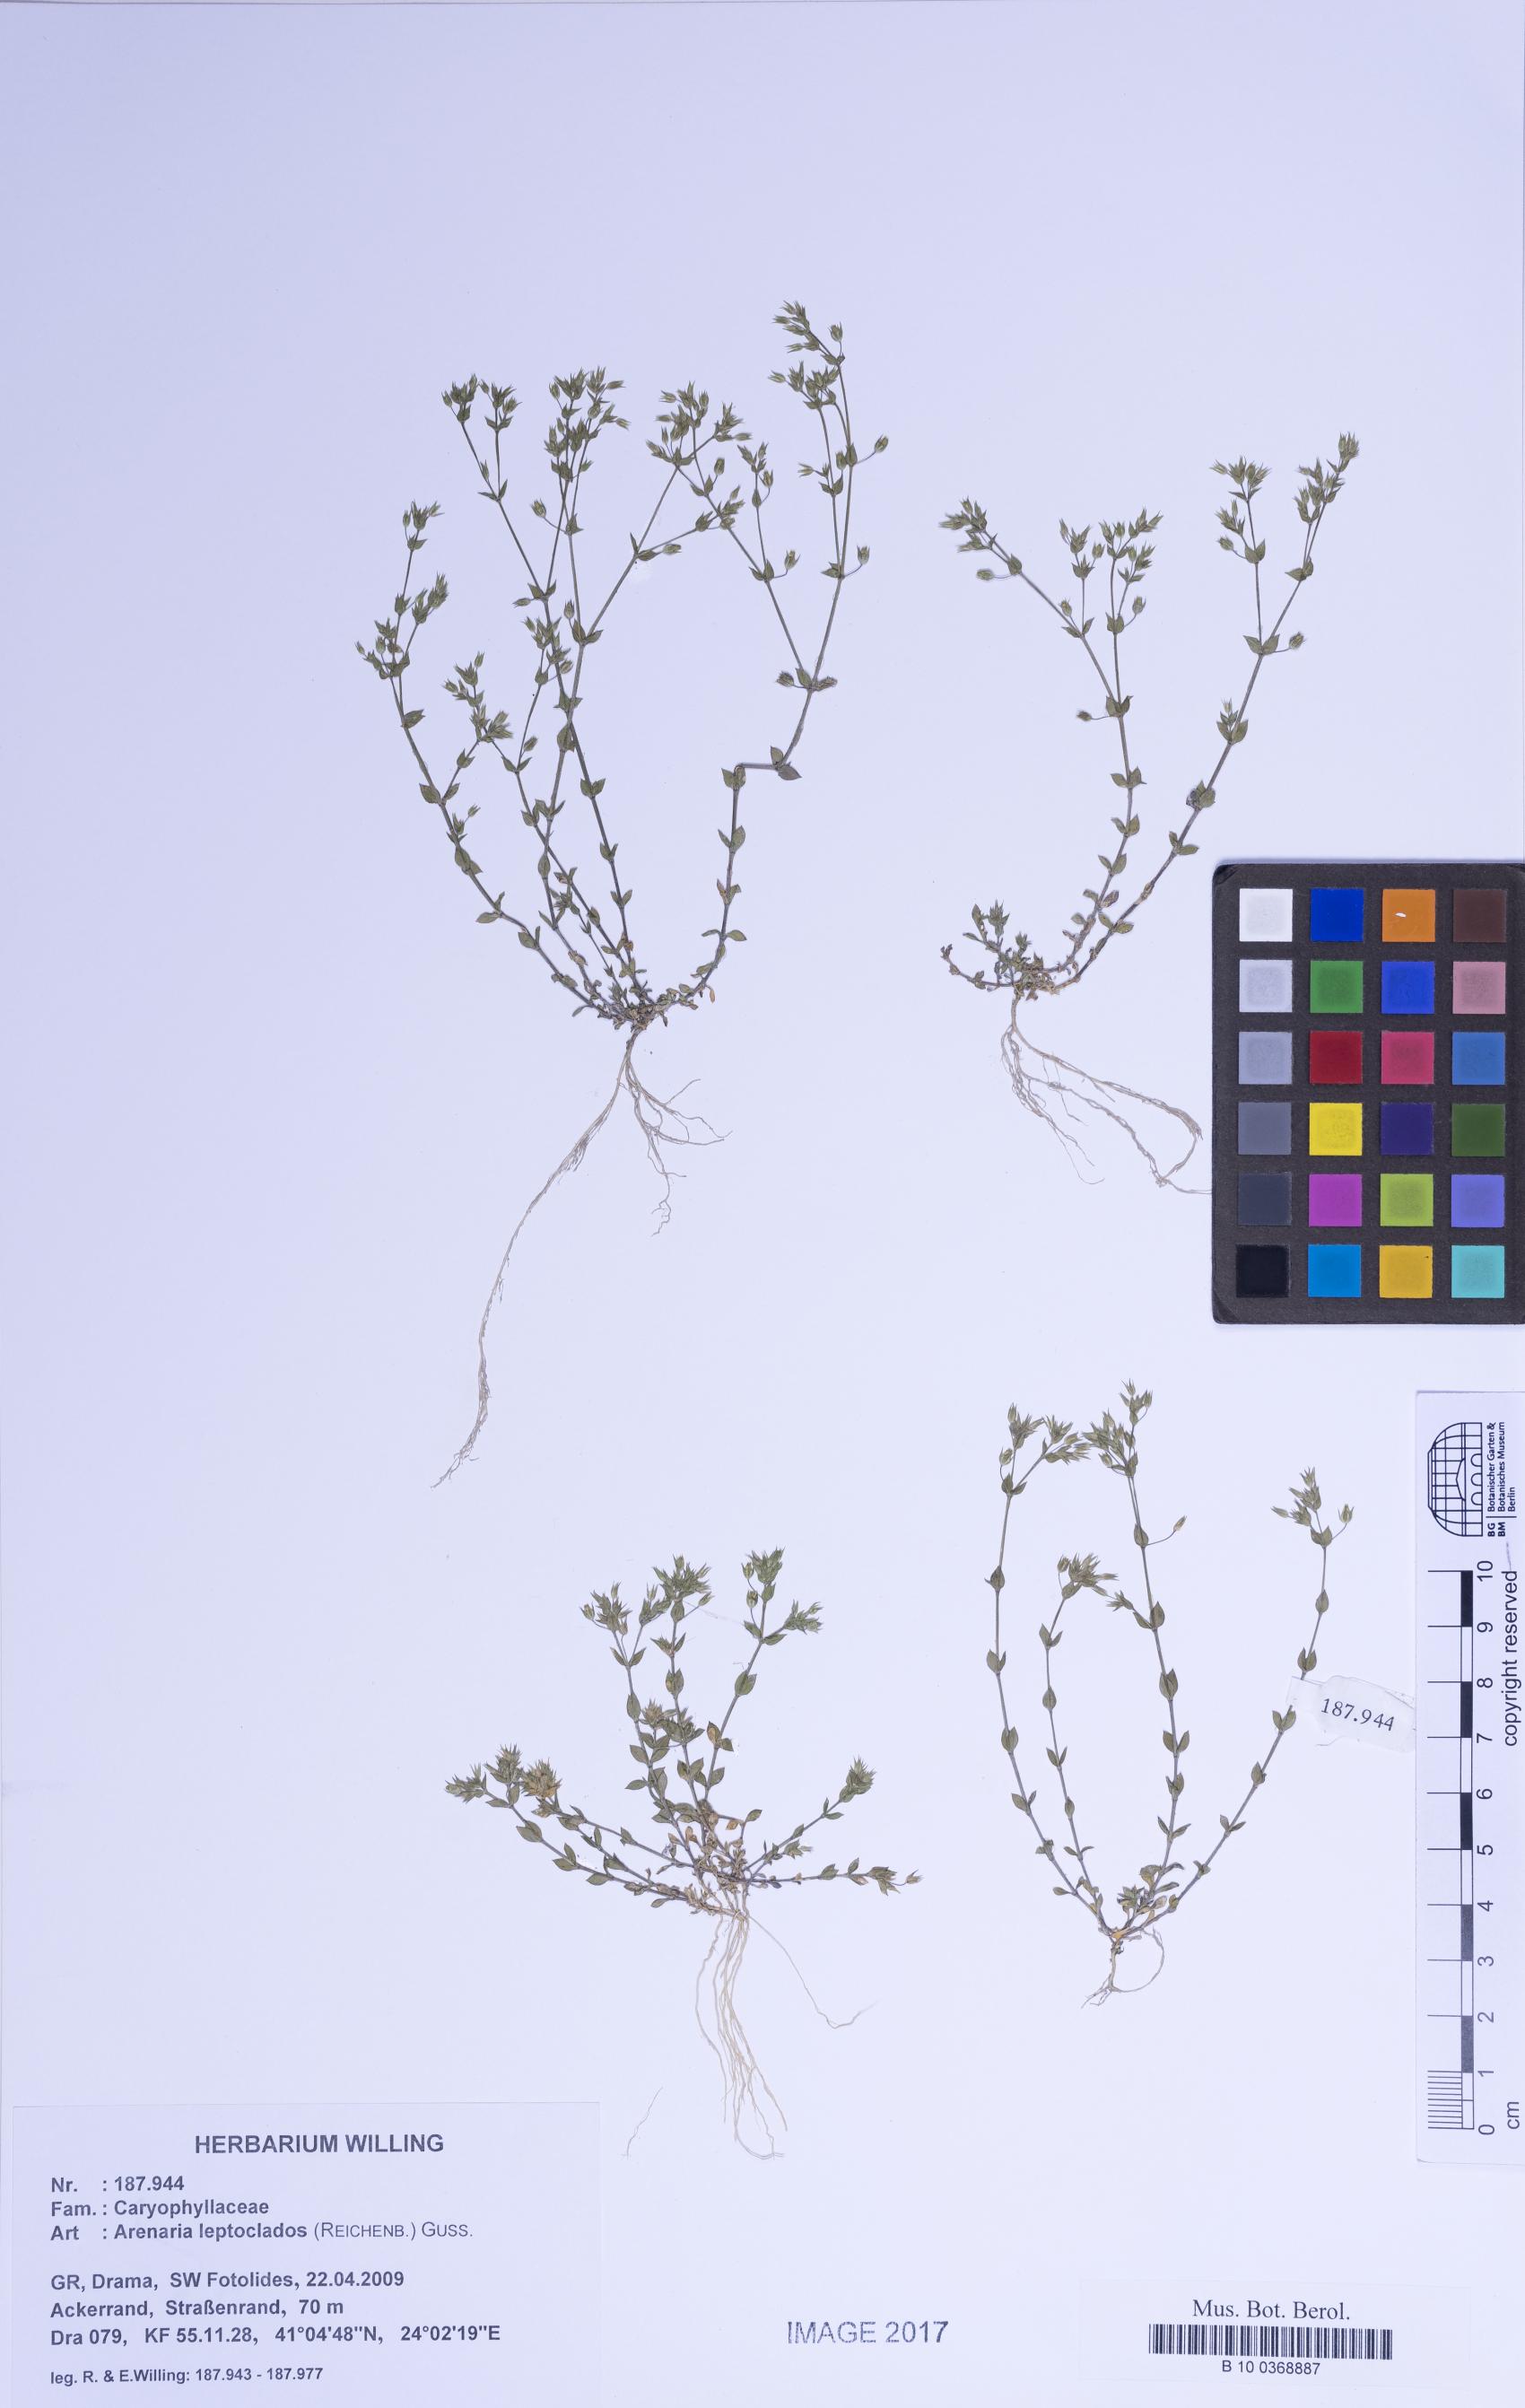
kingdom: Plantae
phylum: Tracheophyta
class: Magnoliopsida
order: Caryophyllales
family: Caryophyllaceae
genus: Arenaria
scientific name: Arenaria leptoclados
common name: Thyme-leaved sandwort
